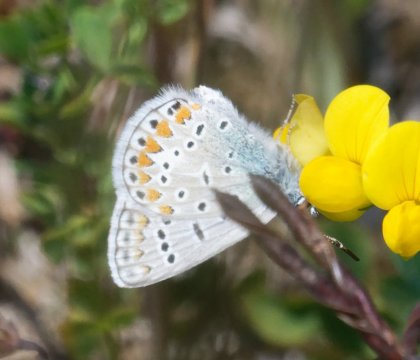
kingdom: Animalia
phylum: Arthropoda
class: Insecta
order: Lepidoptera
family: Lycaenidae
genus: Polyommatus
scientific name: Polyommatus icarus
